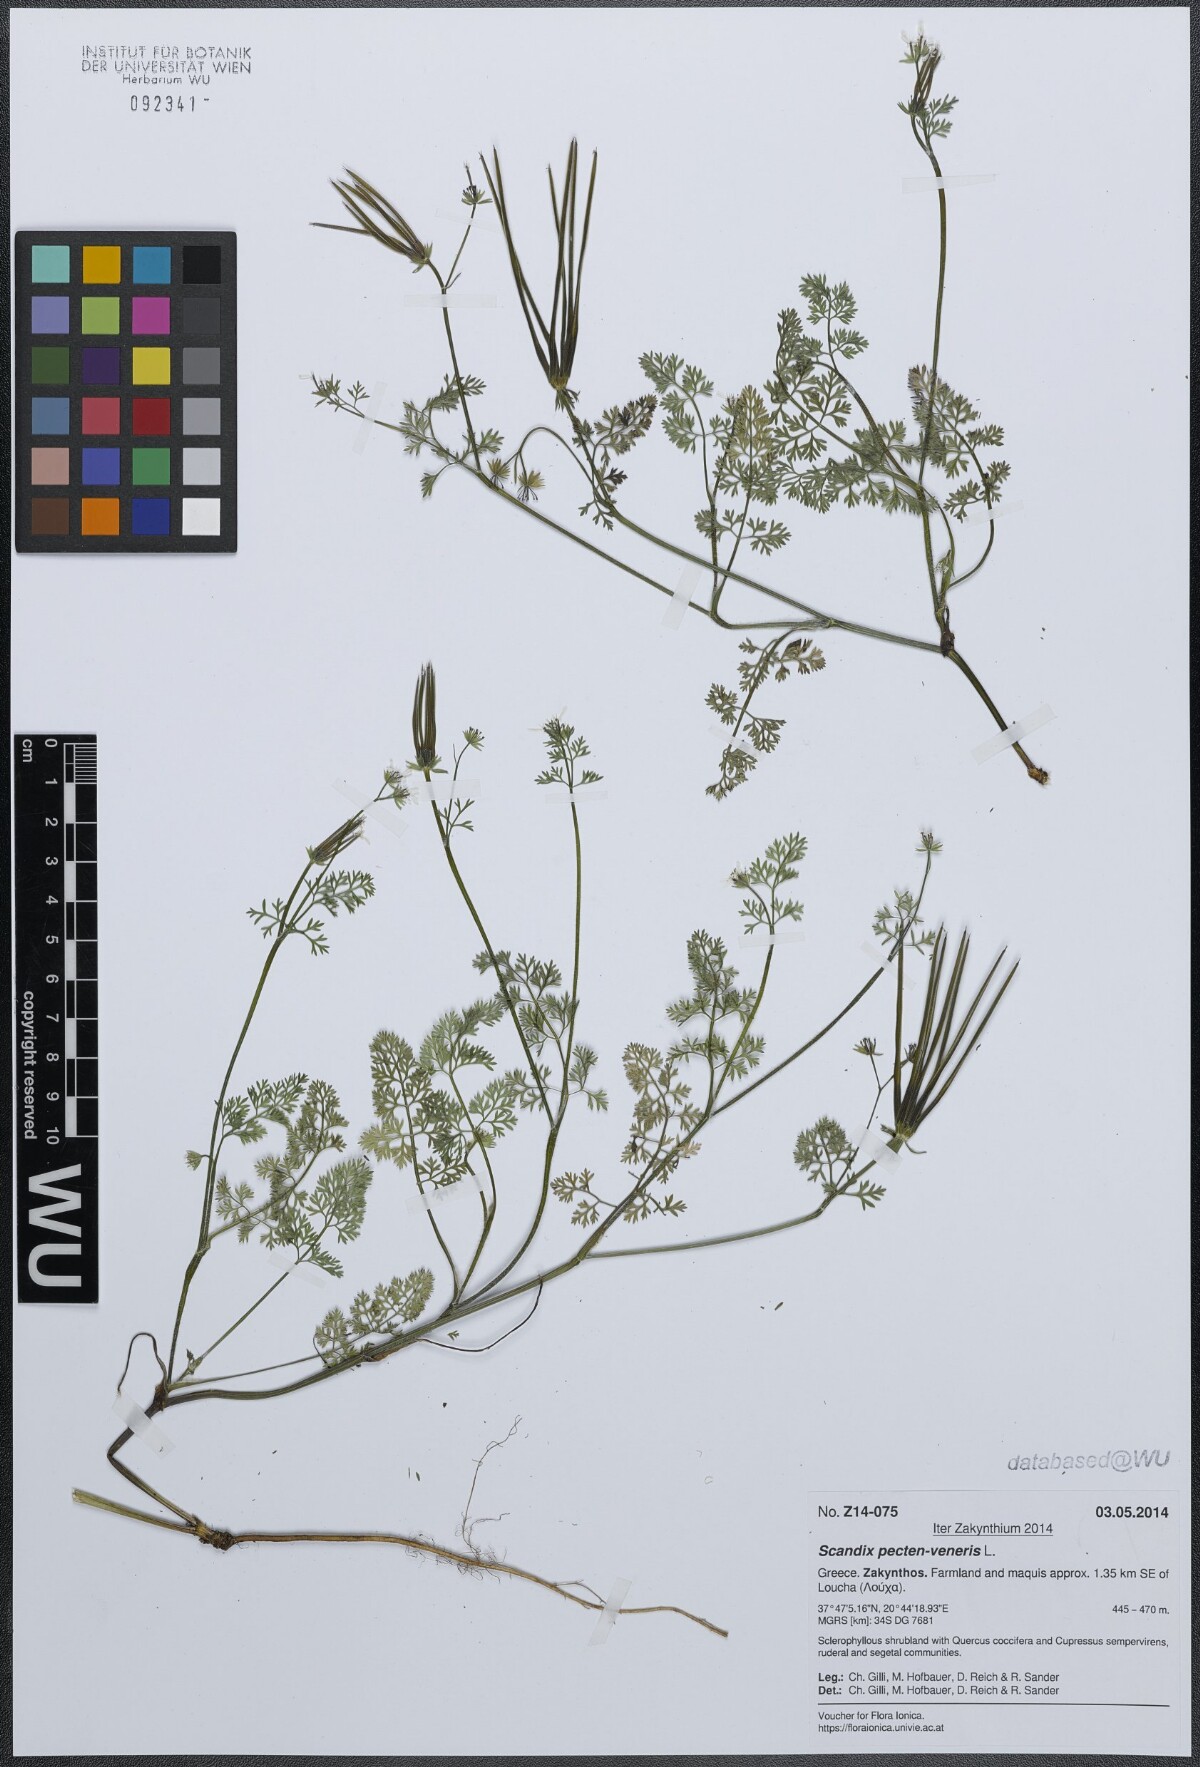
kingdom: Plantae
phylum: Tracheophyta
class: Magnoliopsida
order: Apiales
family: Apiaceae
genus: Scandix
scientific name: Scandix pecten-veneris
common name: Shepherd's-needle
